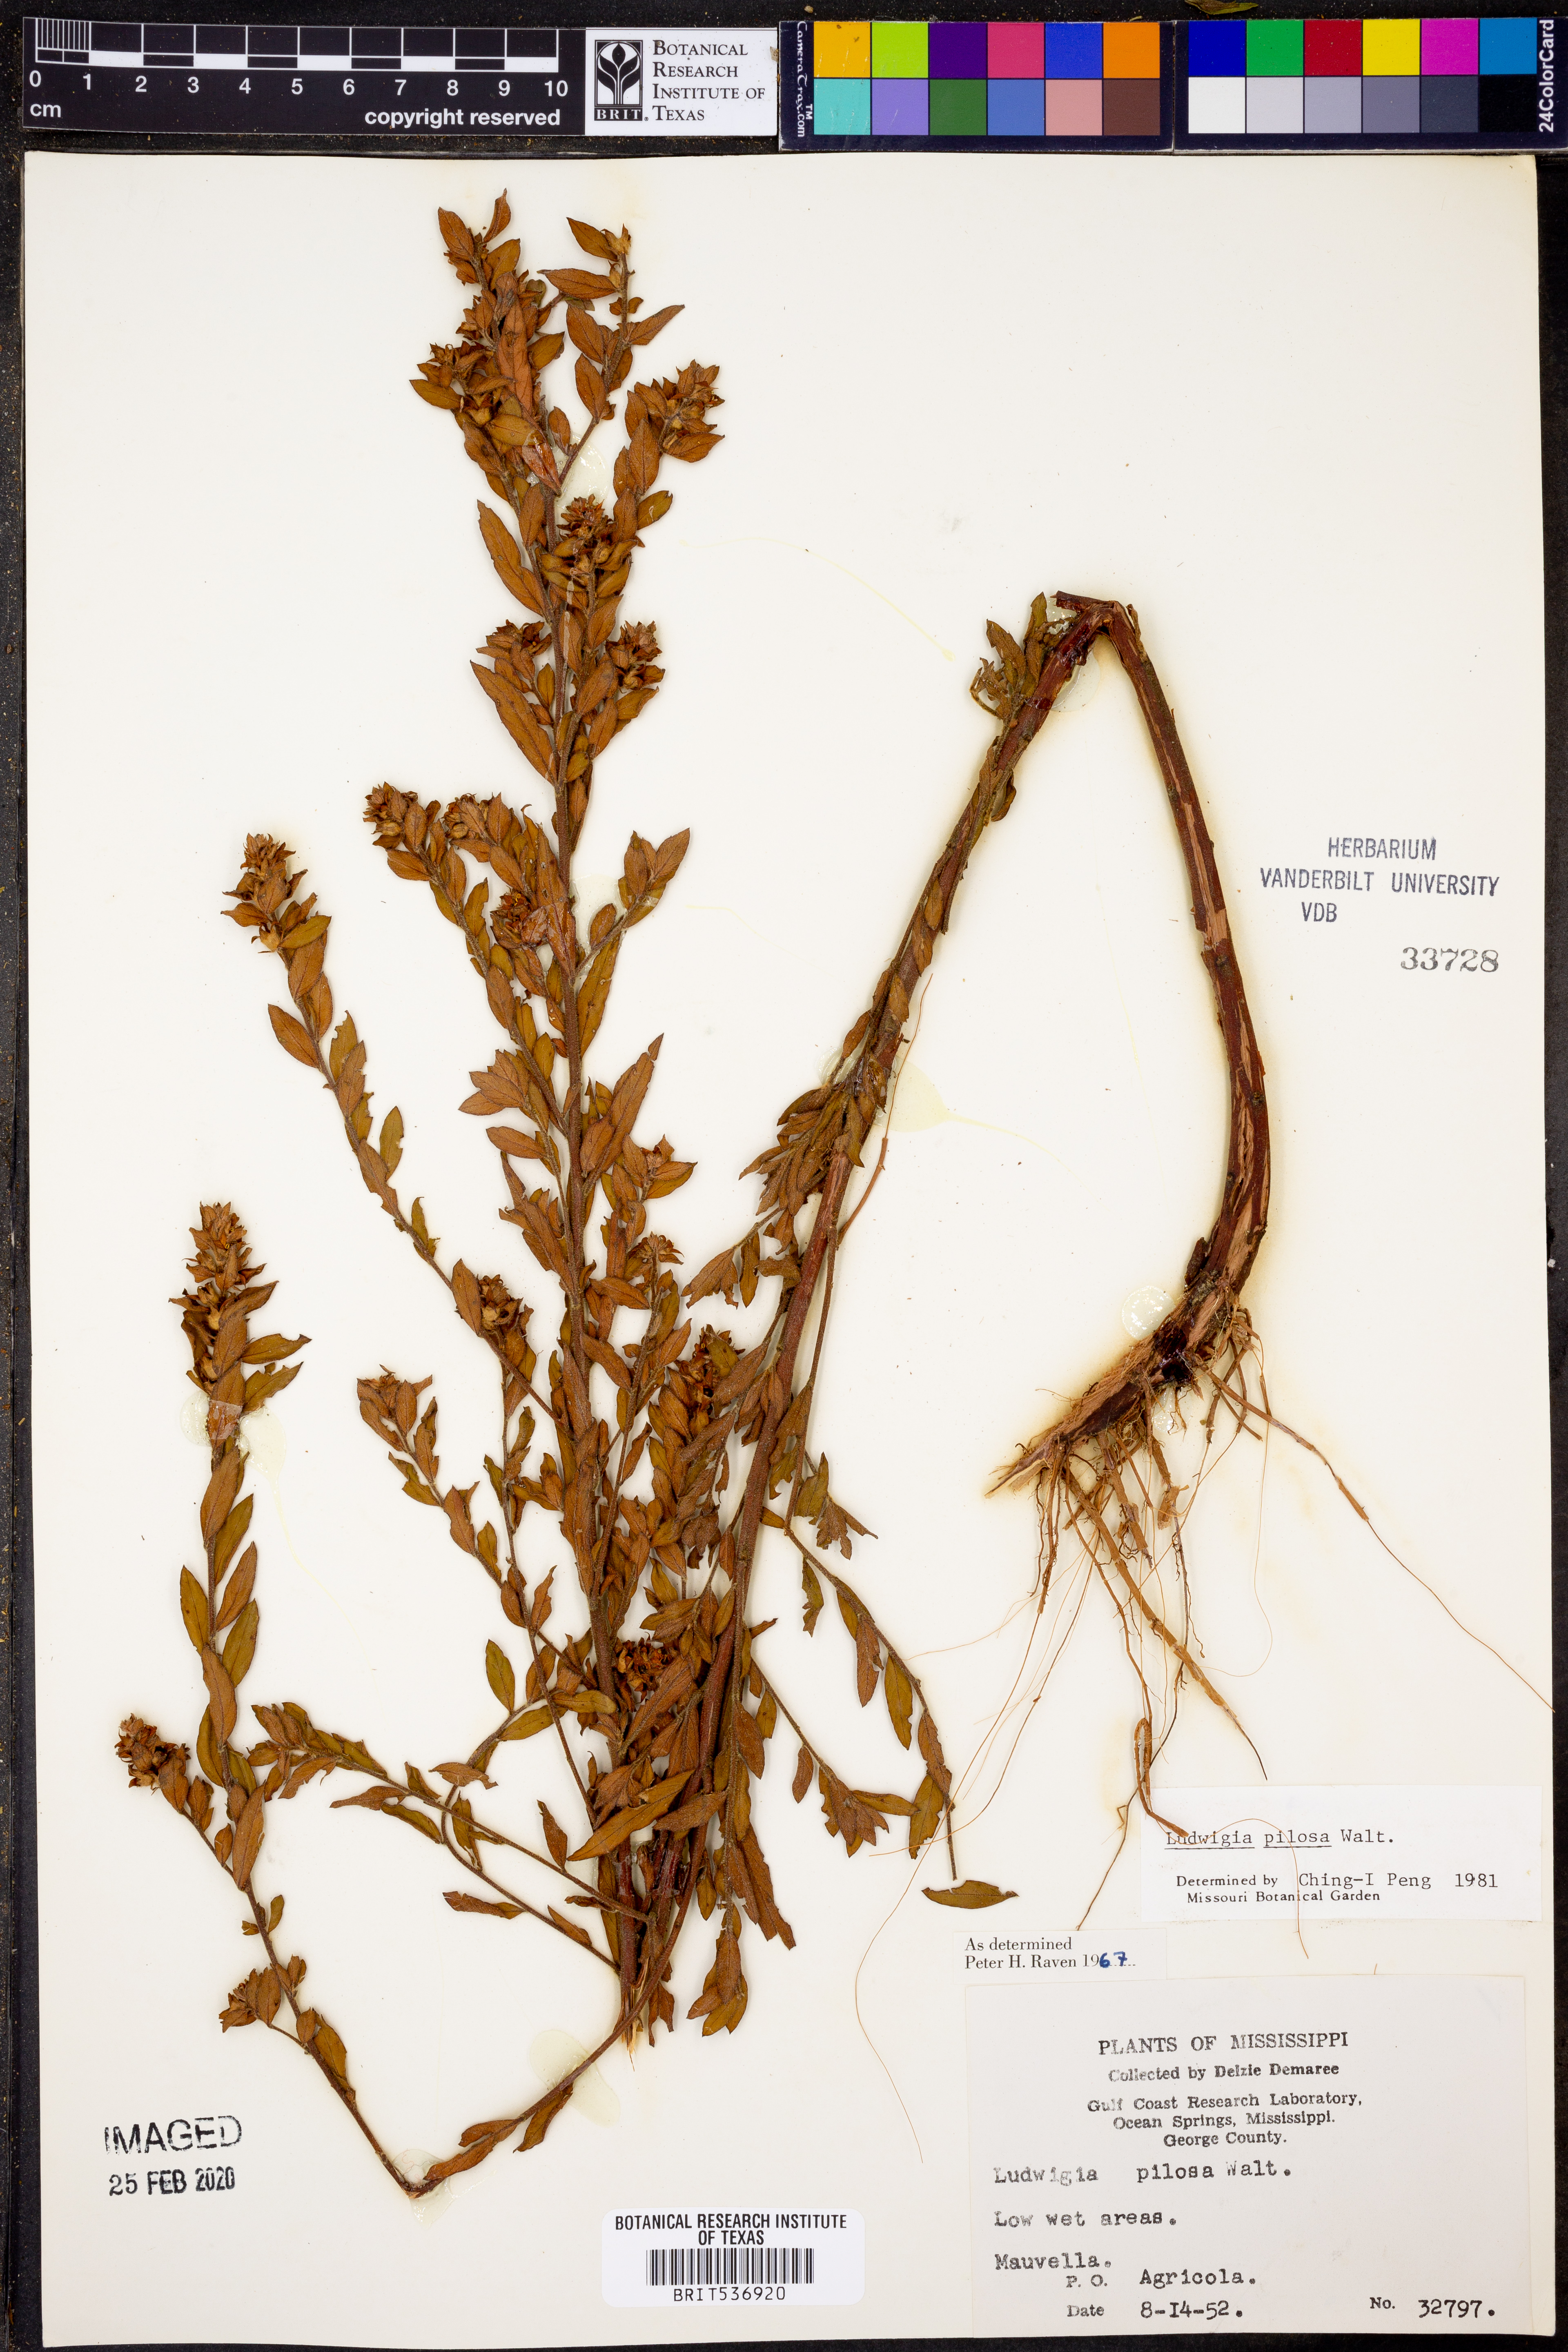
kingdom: Plantae
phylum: Tracheophyta
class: Magnoliopsida
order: Myrtales
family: Onagraceae
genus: Ludwigia
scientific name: Ludwigia pilosa
